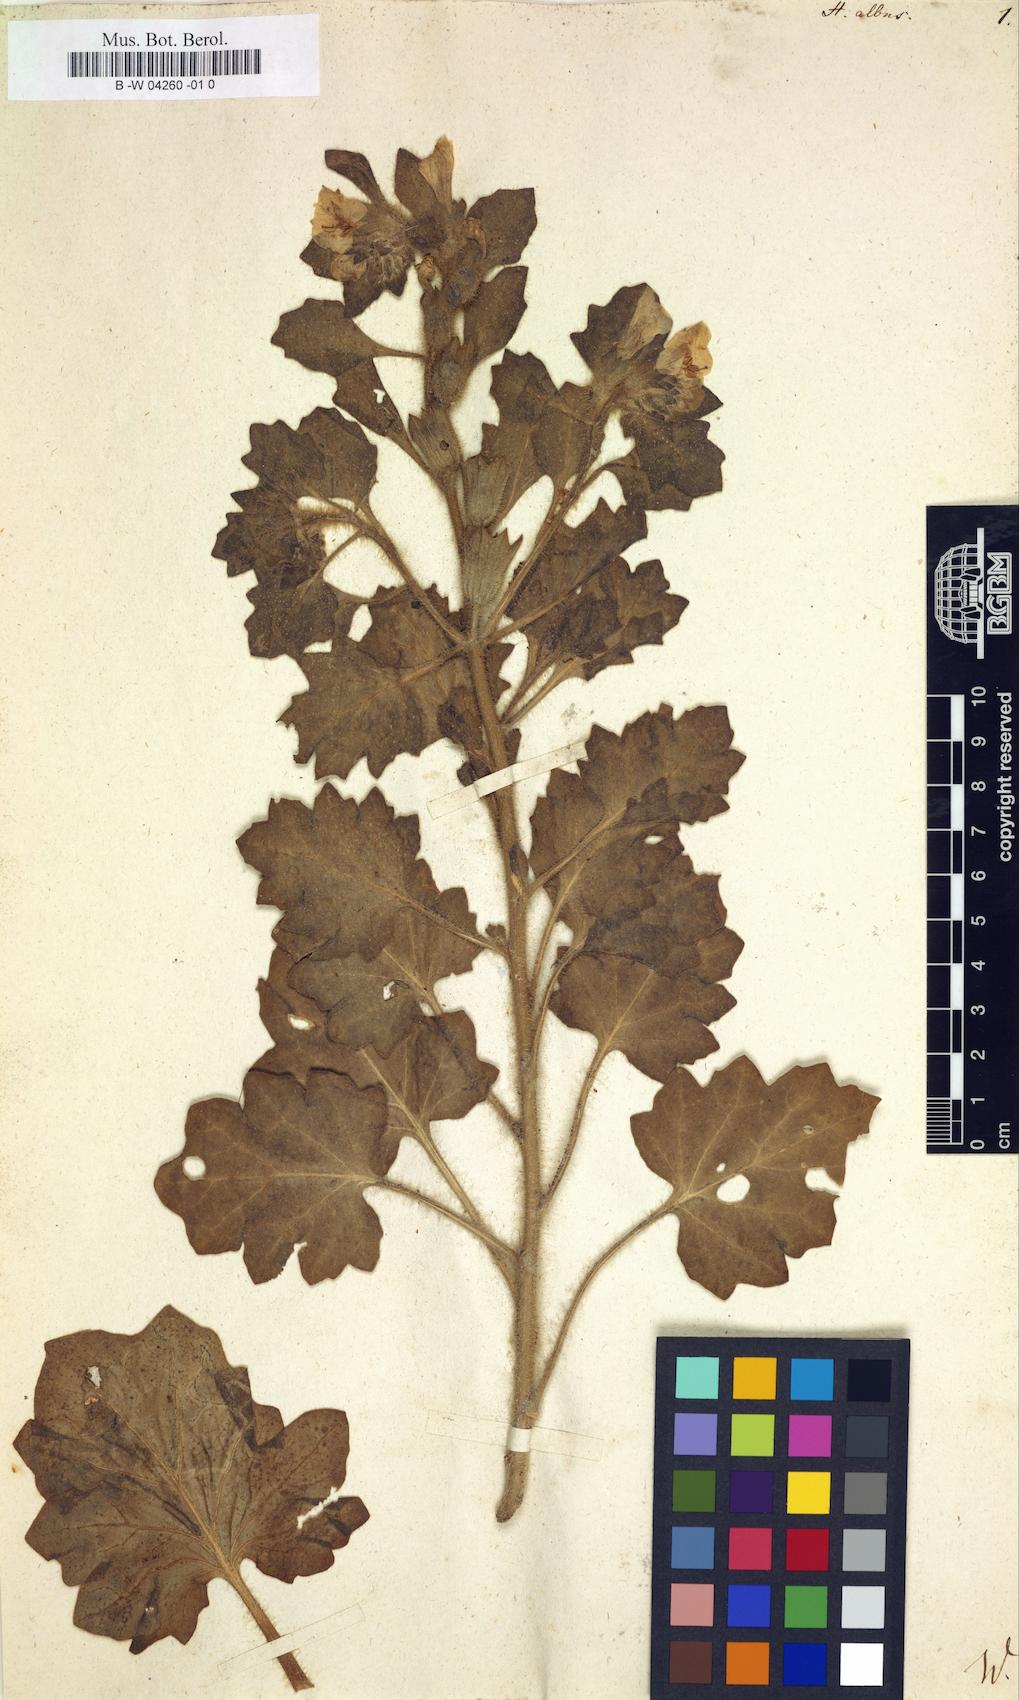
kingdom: Plantae
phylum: Tracheophyta
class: Magnoliopsida
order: Solanales
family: Solanaceae
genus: Hyoscyamus
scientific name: Hyoscyamus albus
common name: White henbane
